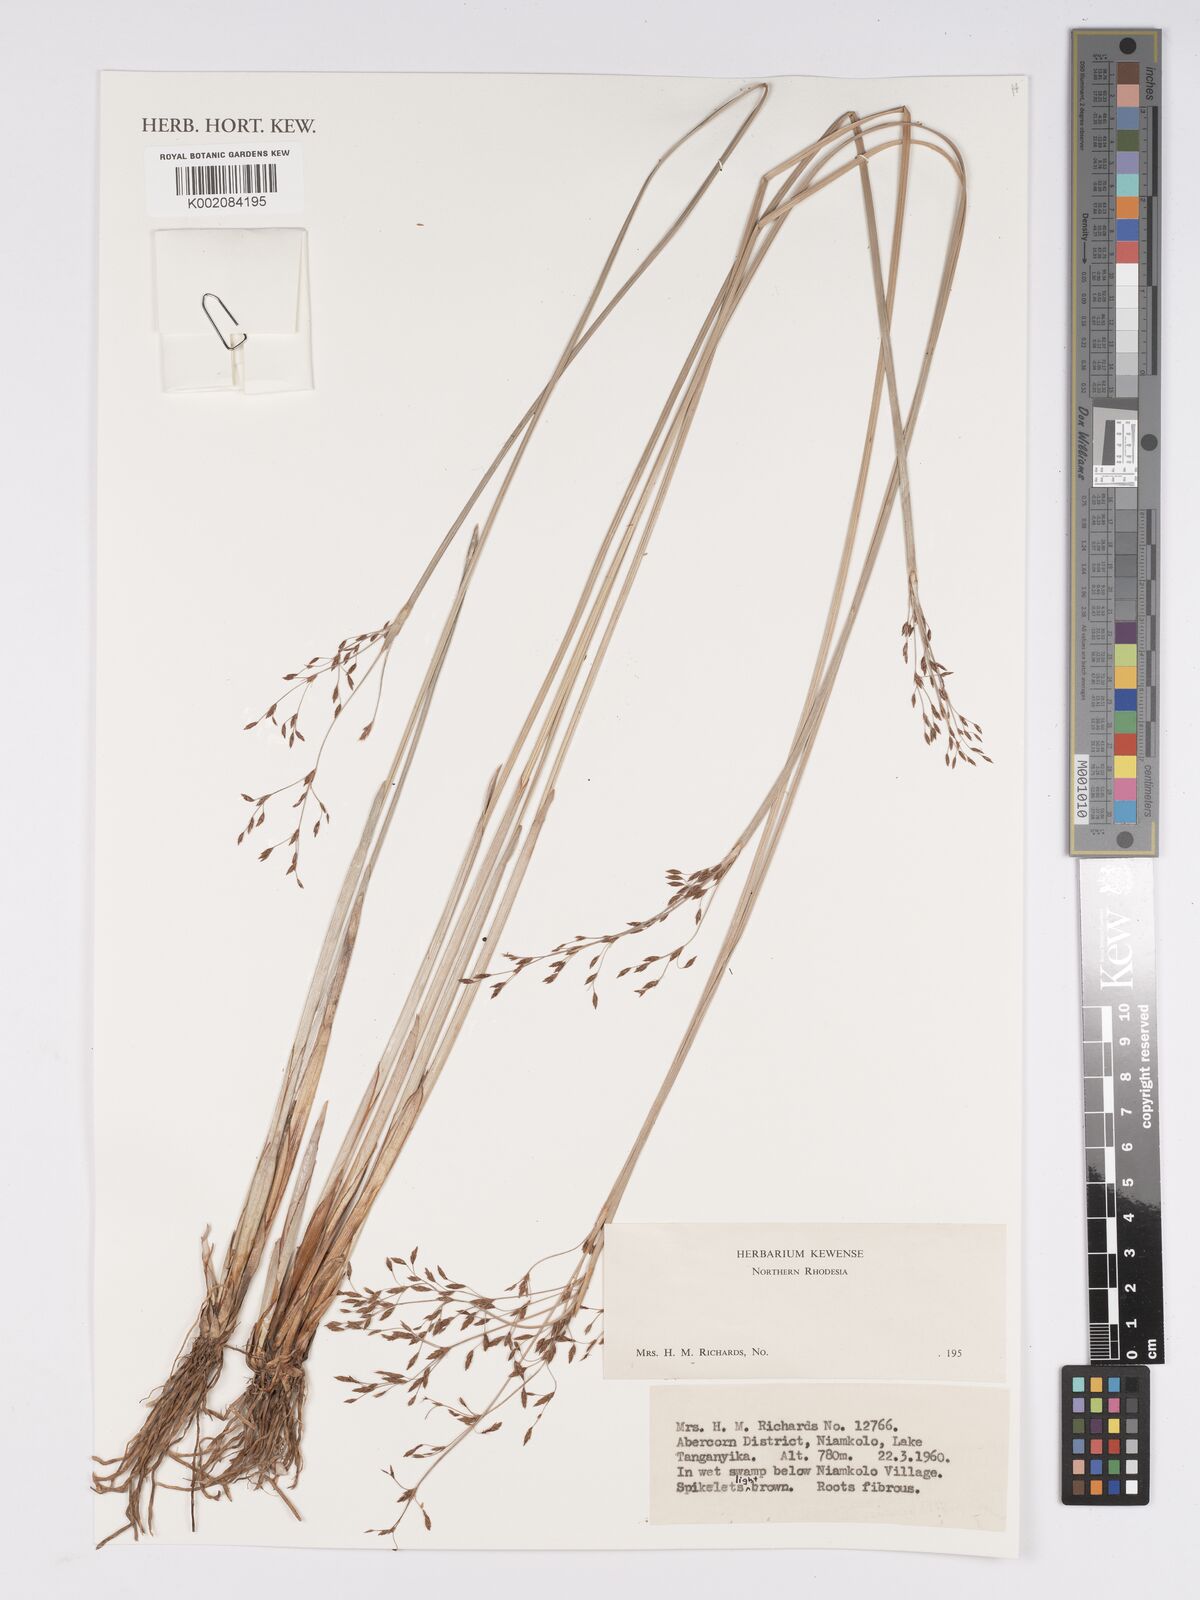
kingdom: Plantae
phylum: Tracheophyta
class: Liliopsida
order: Poales
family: Cyperaceae
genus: Bulbostylis
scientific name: Bulbostylis
